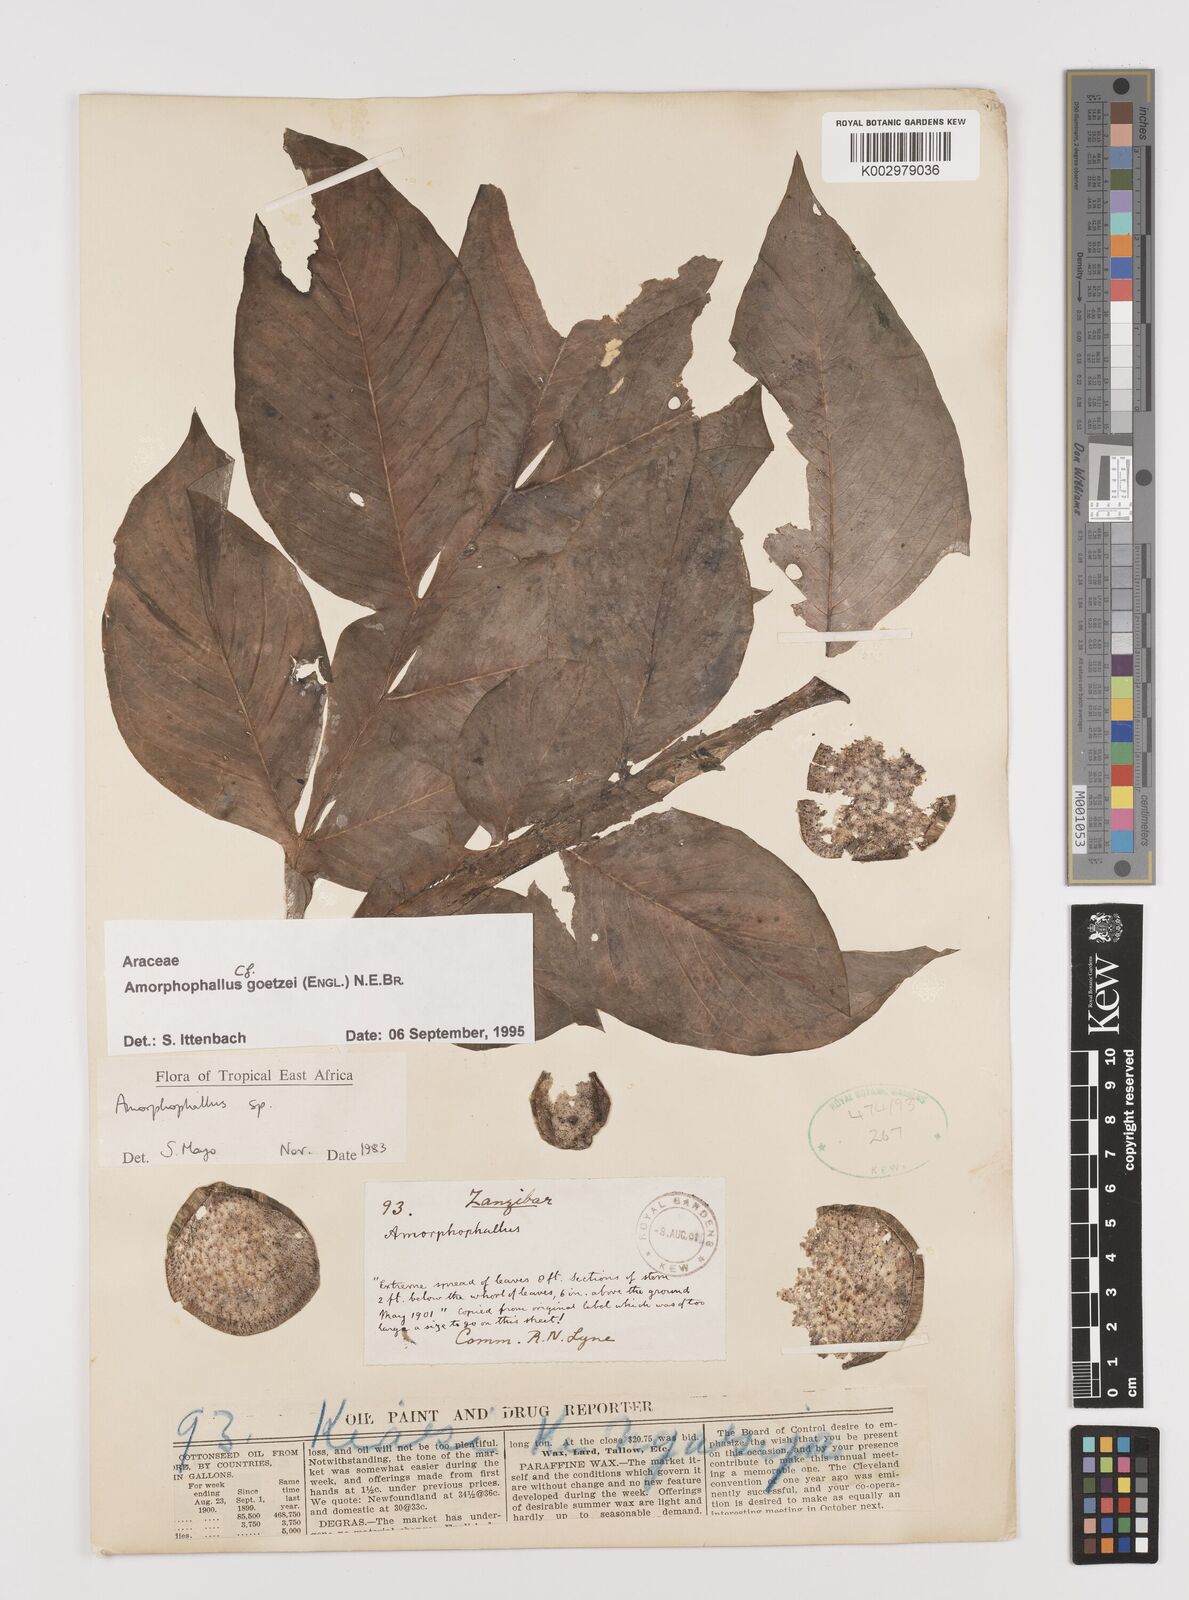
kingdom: Plantae
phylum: Tracheophyta
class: Liliopsida
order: Alismatales
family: Araceae
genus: Amorphophallus
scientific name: Amorphophallus goetzei
